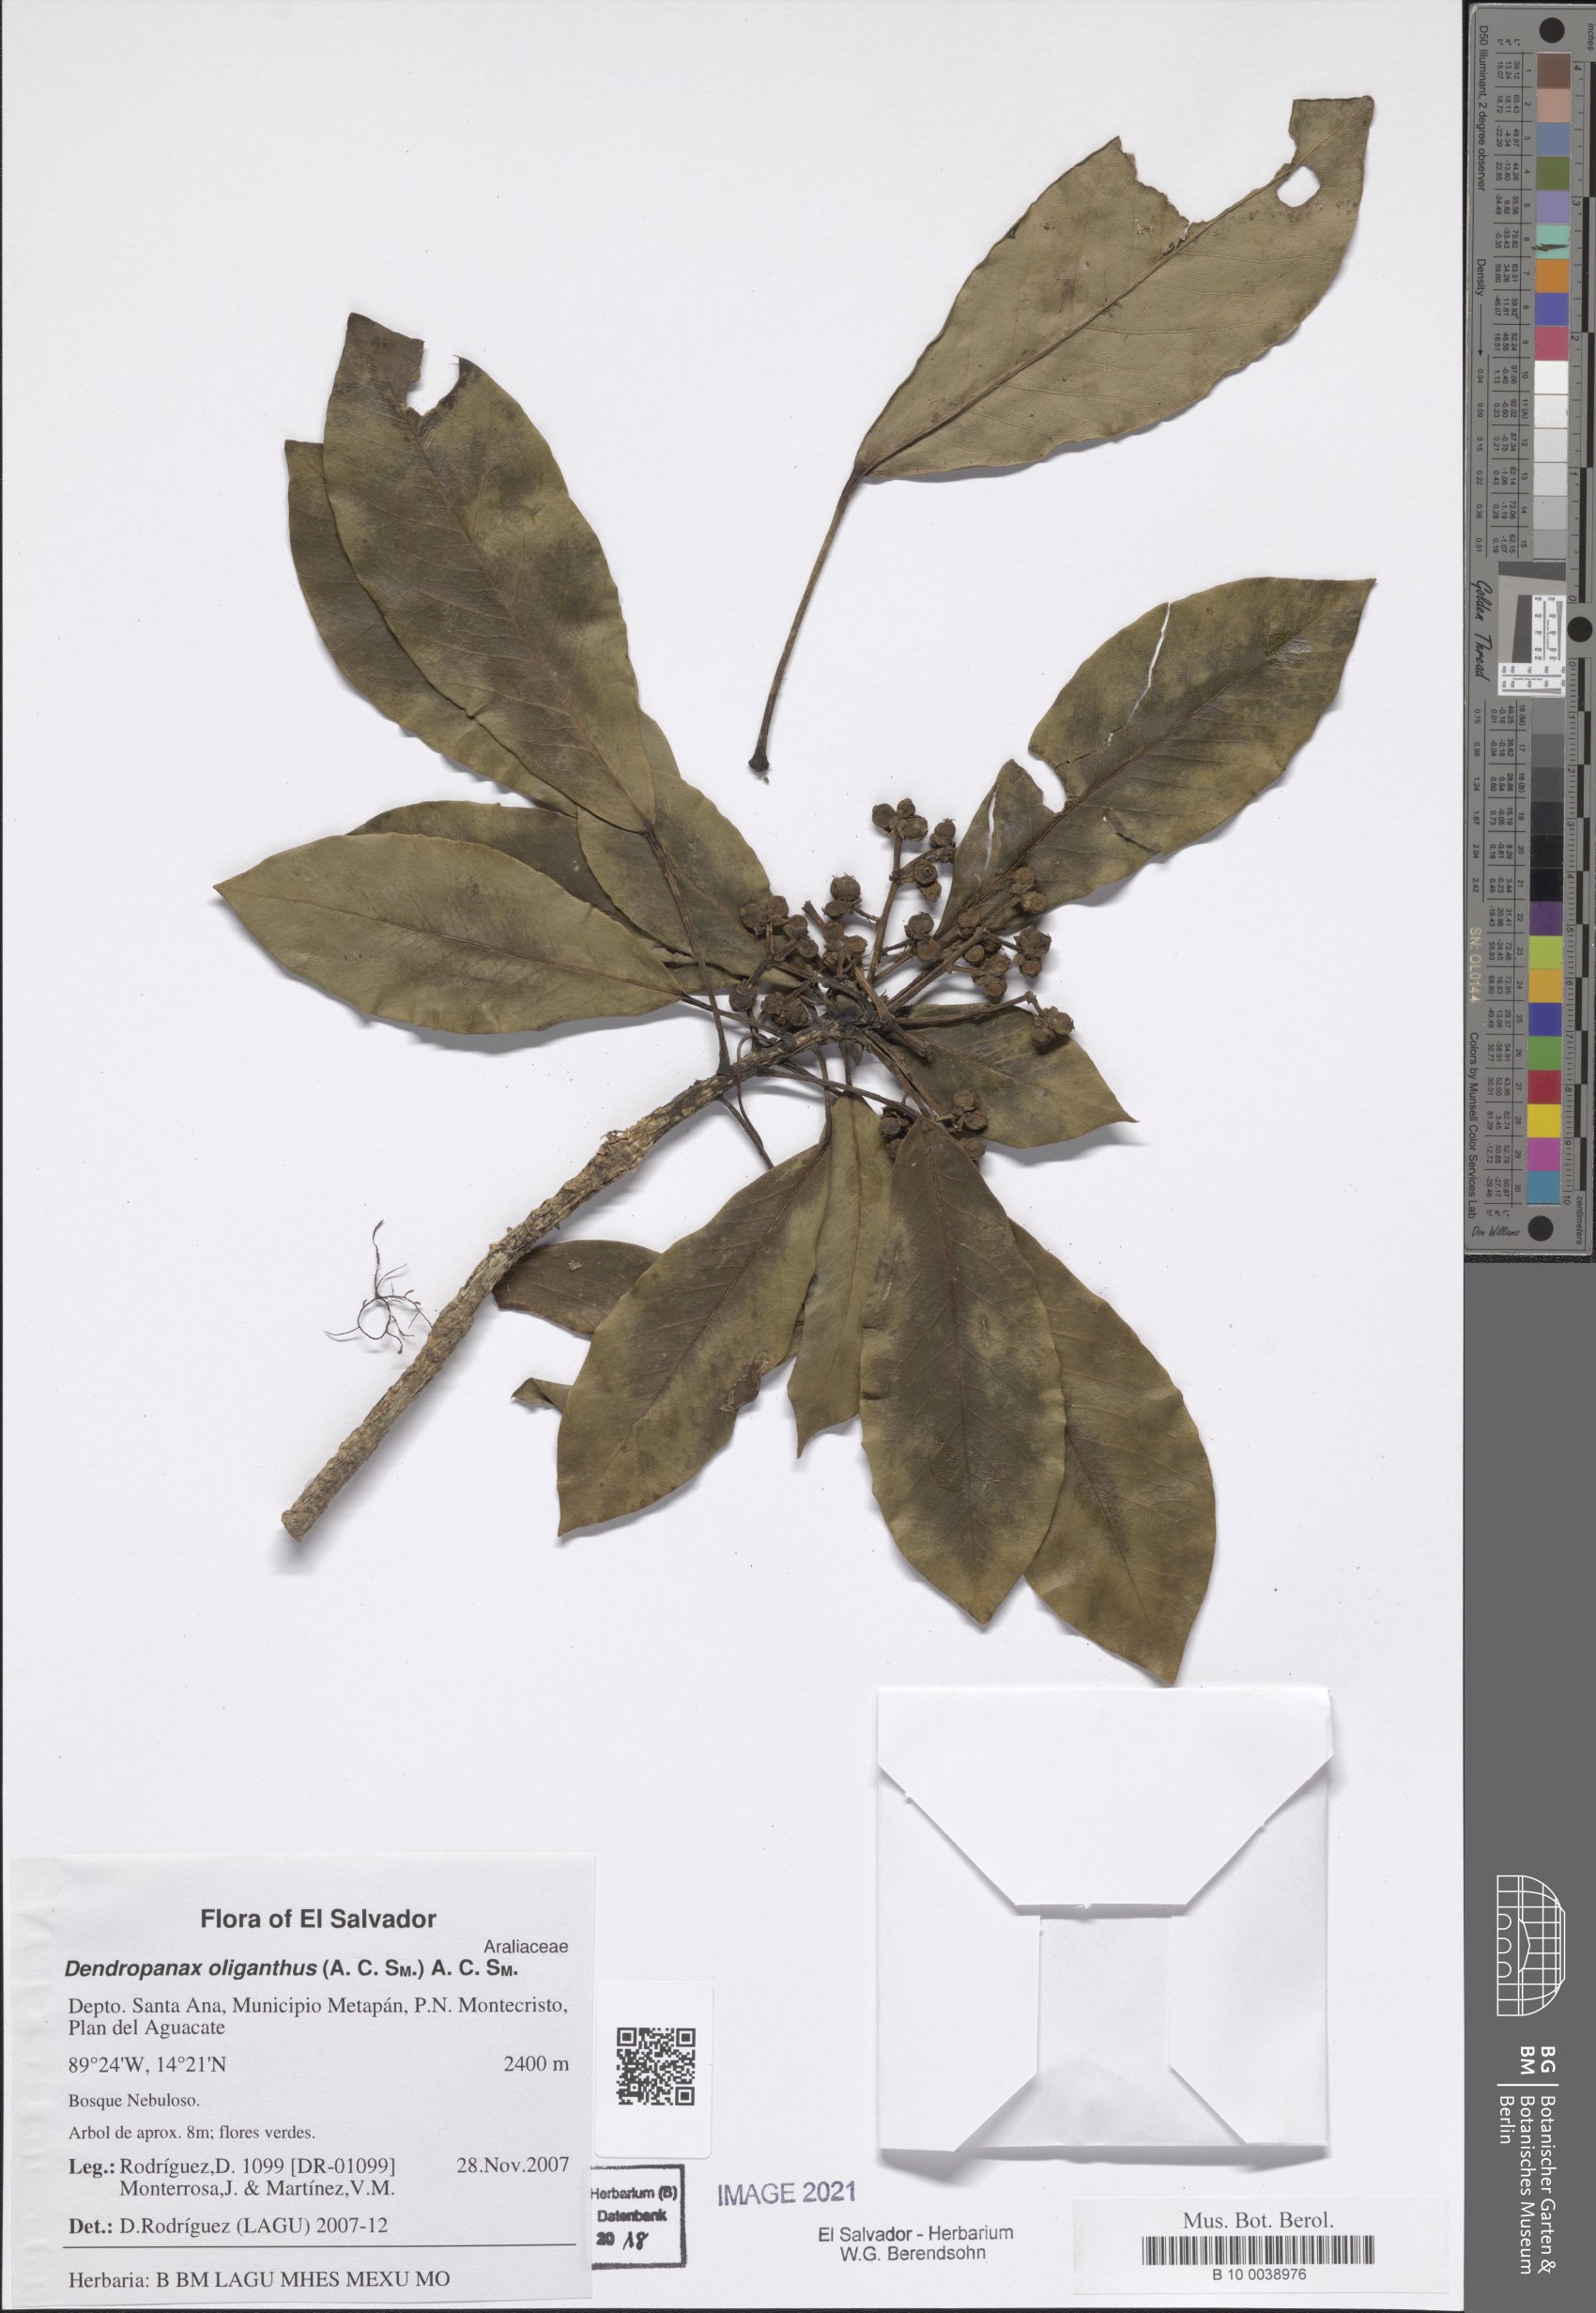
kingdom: Plantae
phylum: Tracheophyta
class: Magnoliopsida
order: Apiales
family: Araliaceae
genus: Dendropanax
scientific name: Dendropanax oliganthus
